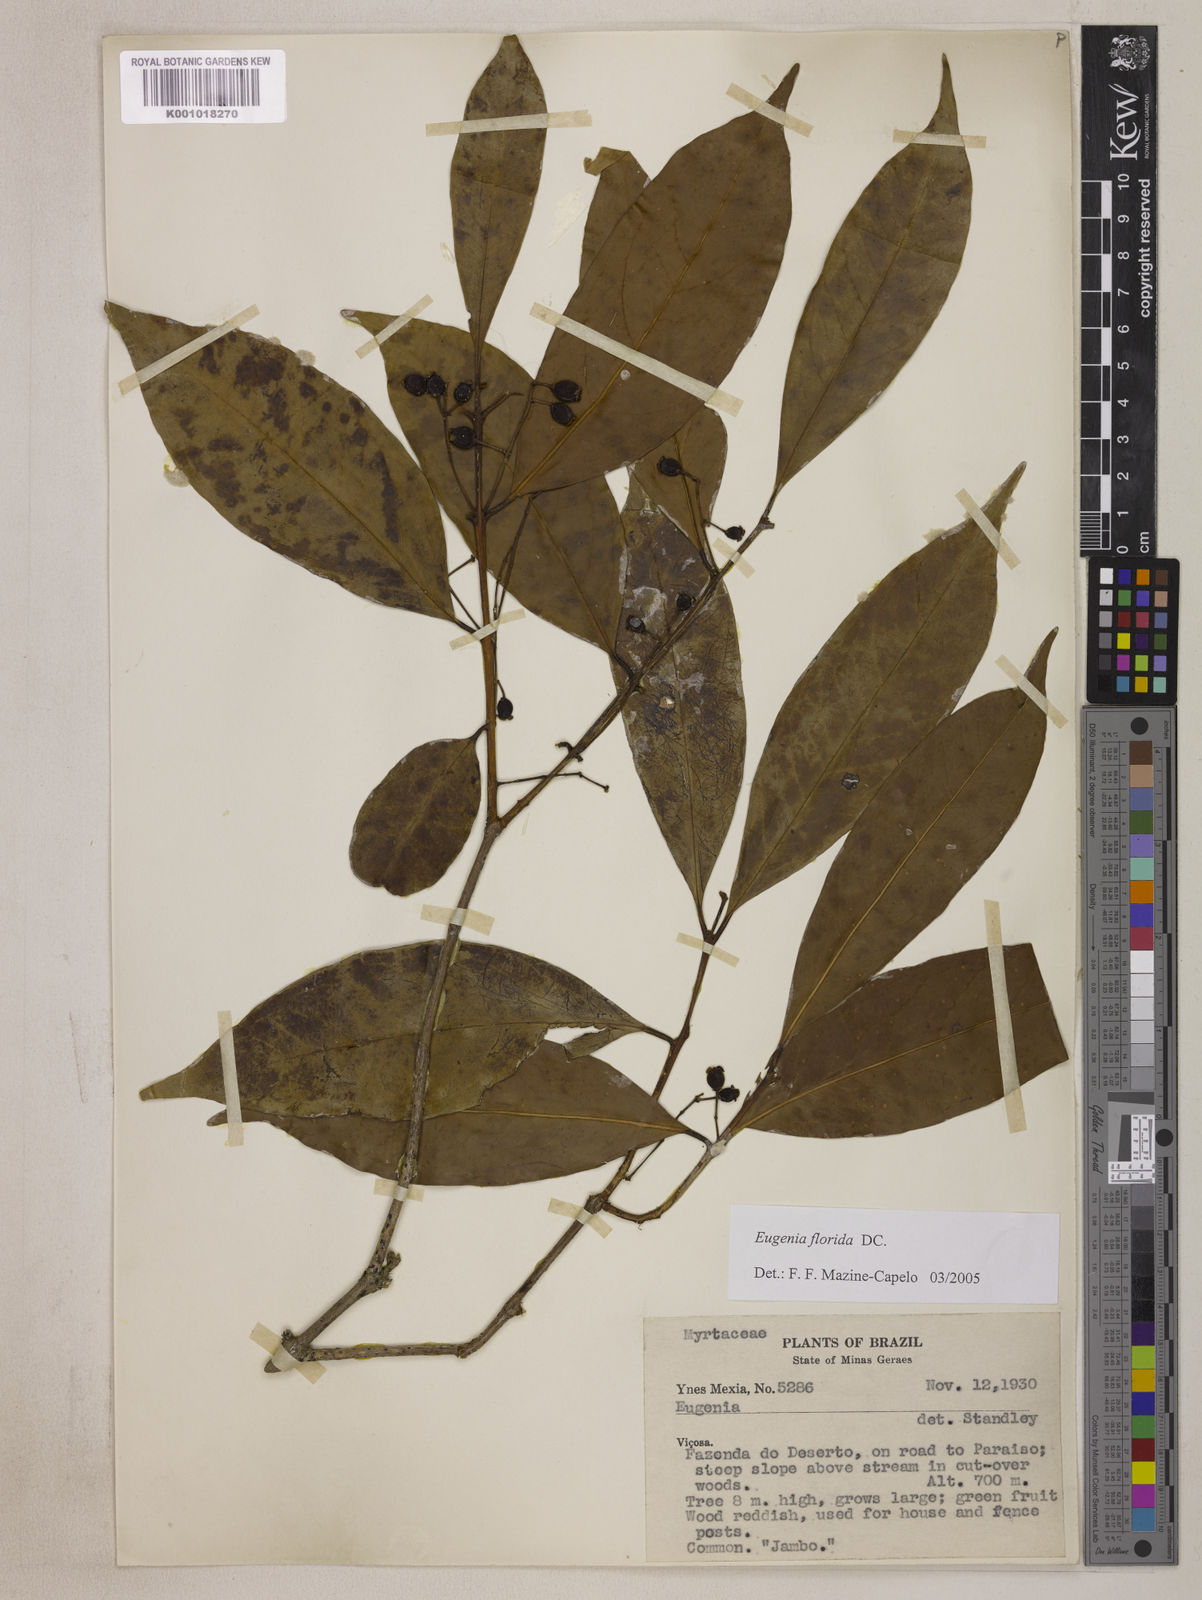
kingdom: Plantae
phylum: Tracheophyta
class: Magnoliopsida
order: Myrtales
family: Myrtaceae
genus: Eugenia
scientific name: Eugenia florida
